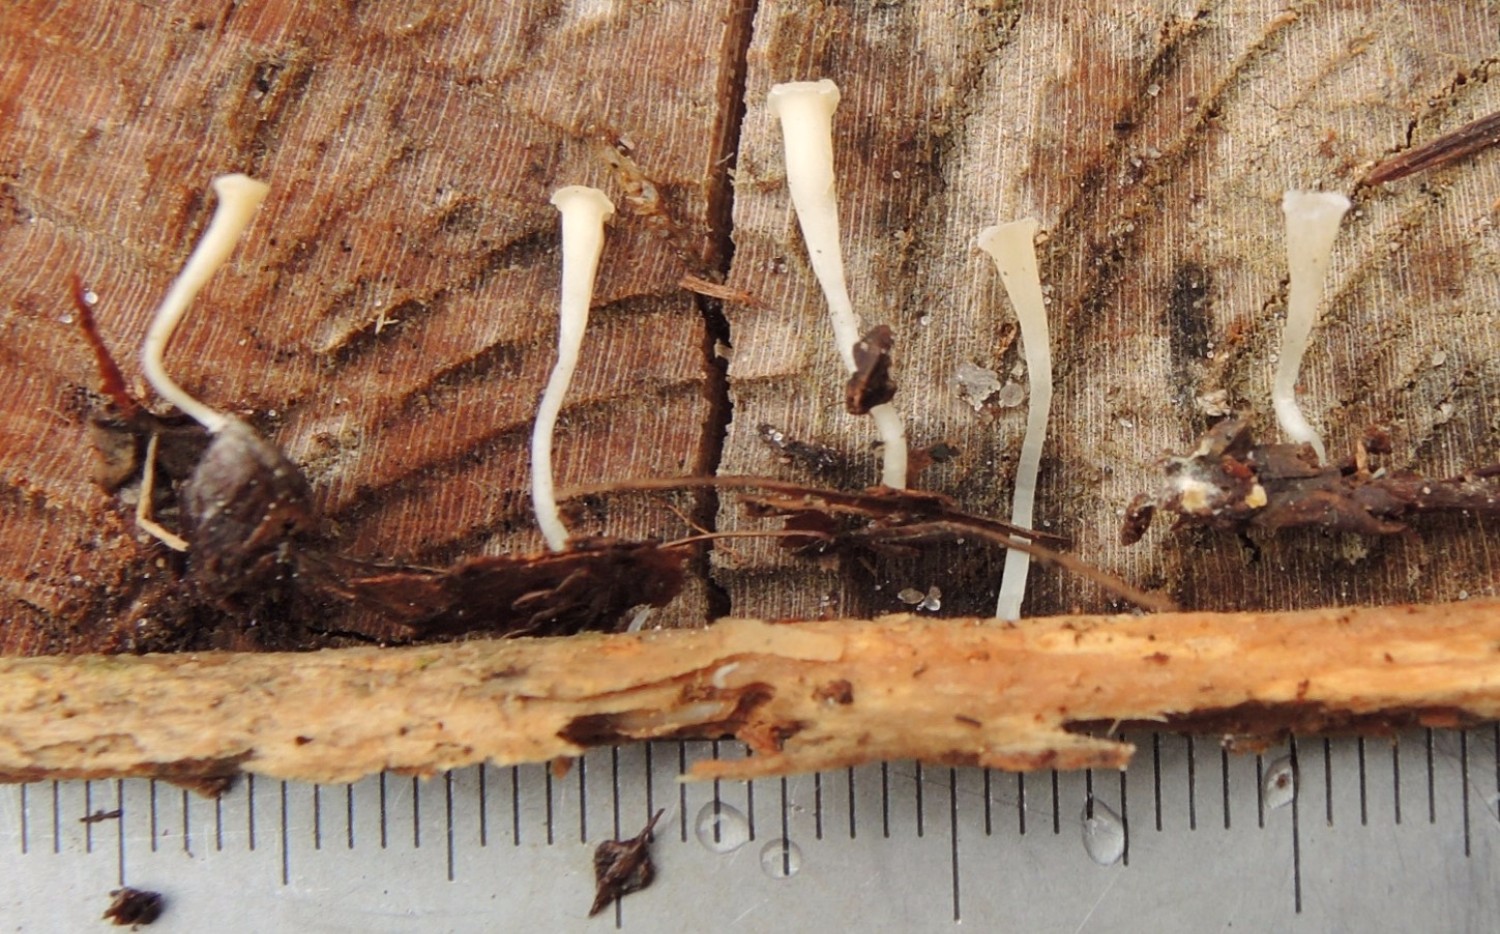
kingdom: Fungi
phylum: Basidiomycota
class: Agaricomycetes
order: Agaricales
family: Clavariaceae
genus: Clavicorona
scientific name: Clavicorona taxophila
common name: trompetkølle
